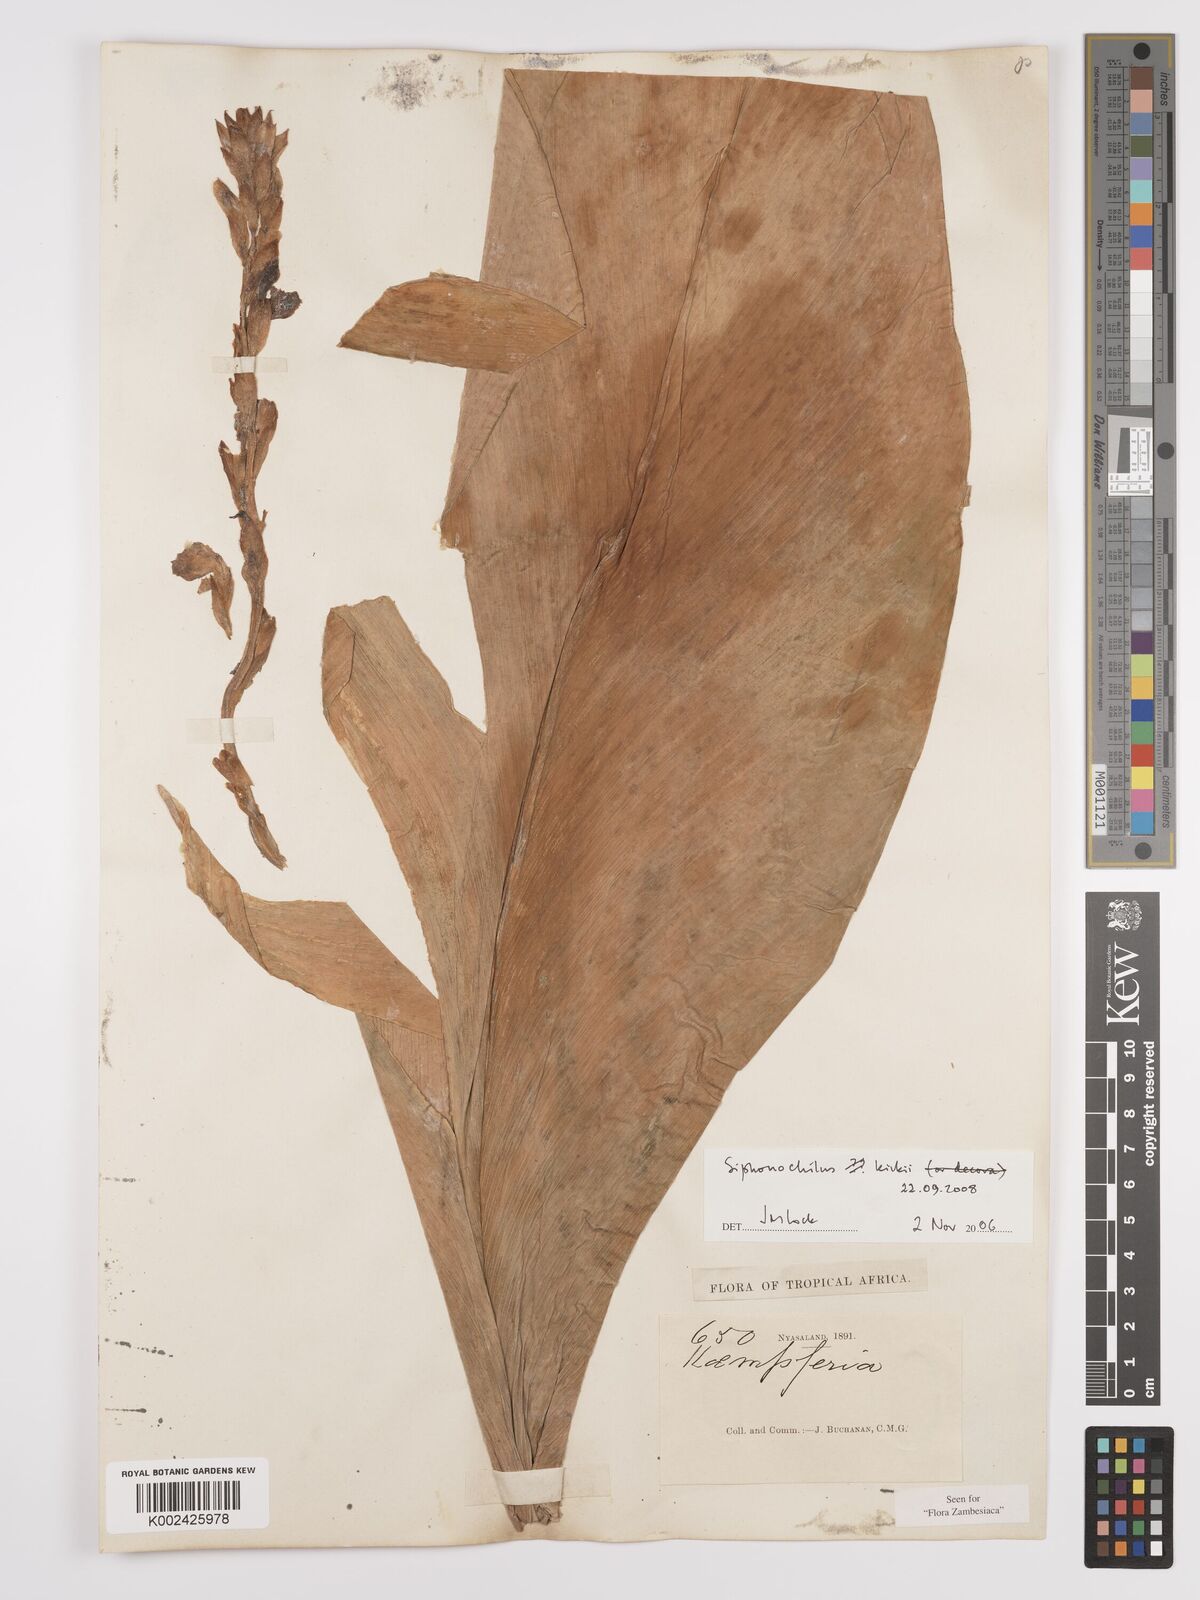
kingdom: Plantae
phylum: Tracheophyta
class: Liliopsida
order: Zingiberales
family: Zingiberaceae
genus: Siphonochilus
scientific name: Siphonochilus kirkii
